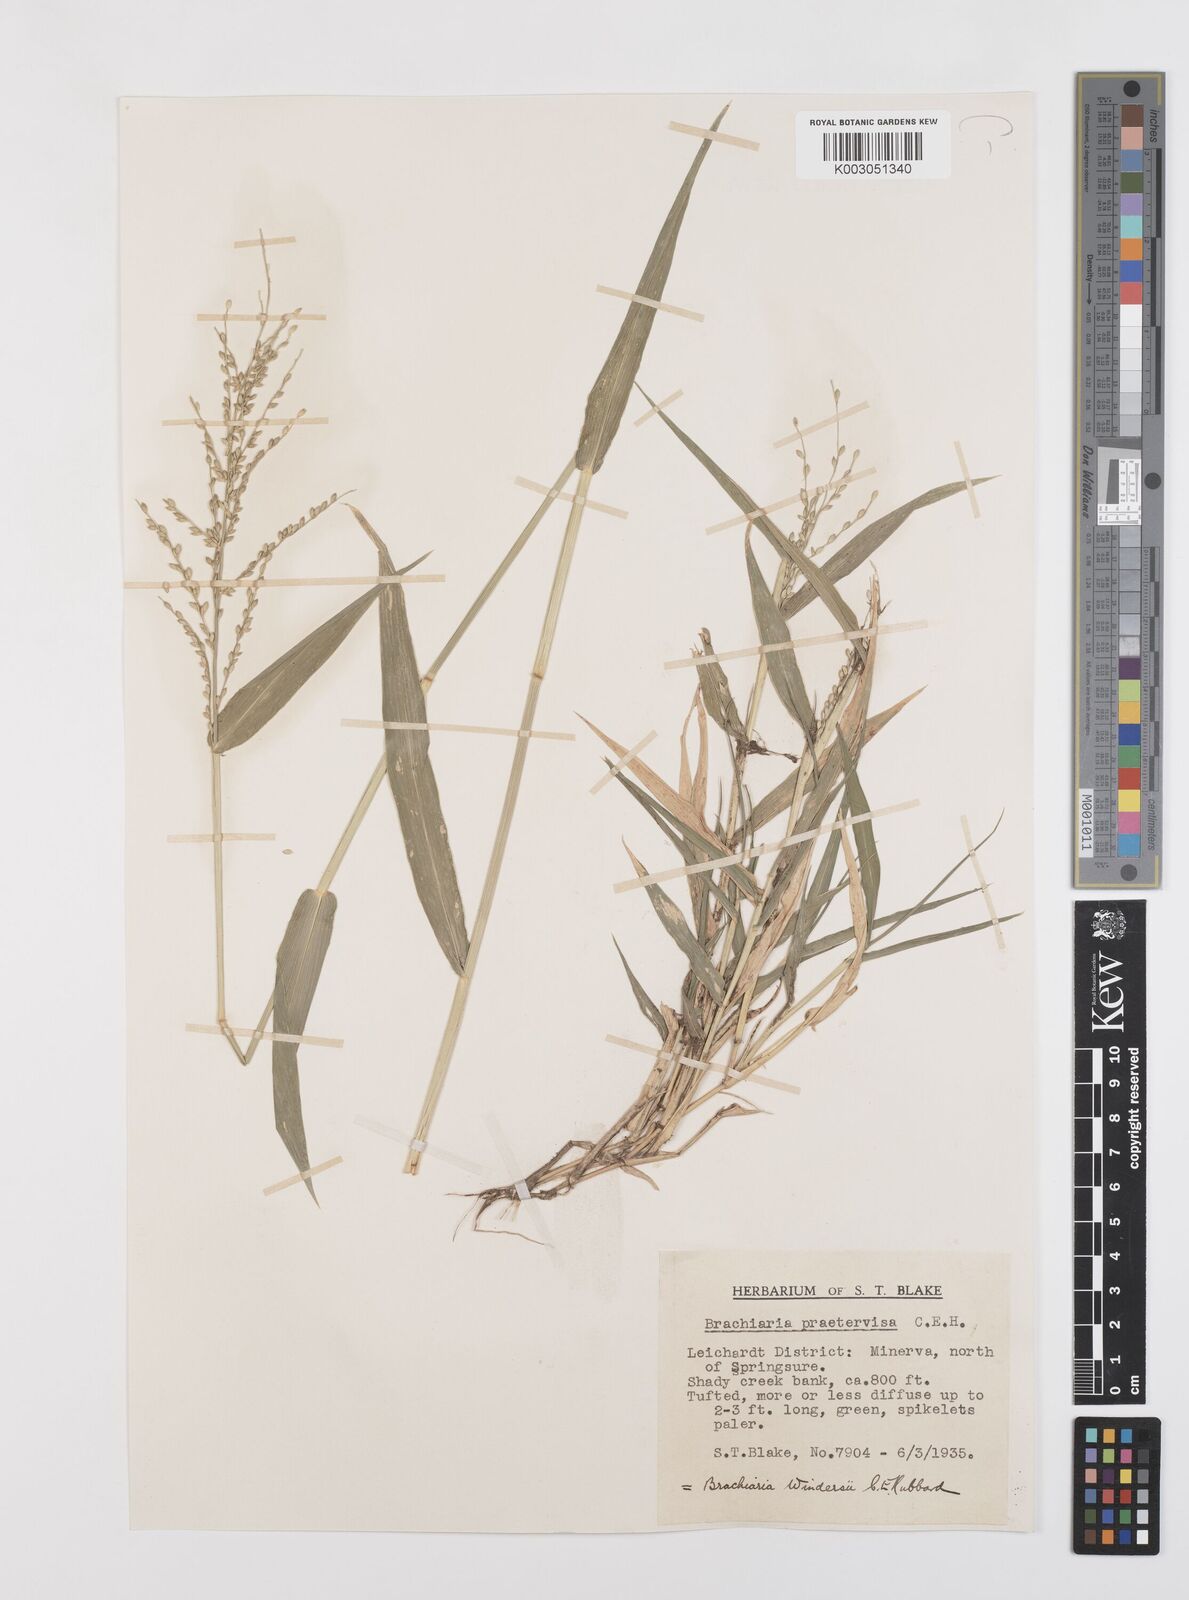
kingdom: Plantae
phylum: Tracheophyta
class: Liliopsida
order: Poales
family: Poaceae
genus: Urochloa
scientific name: Urochloa whiteana
